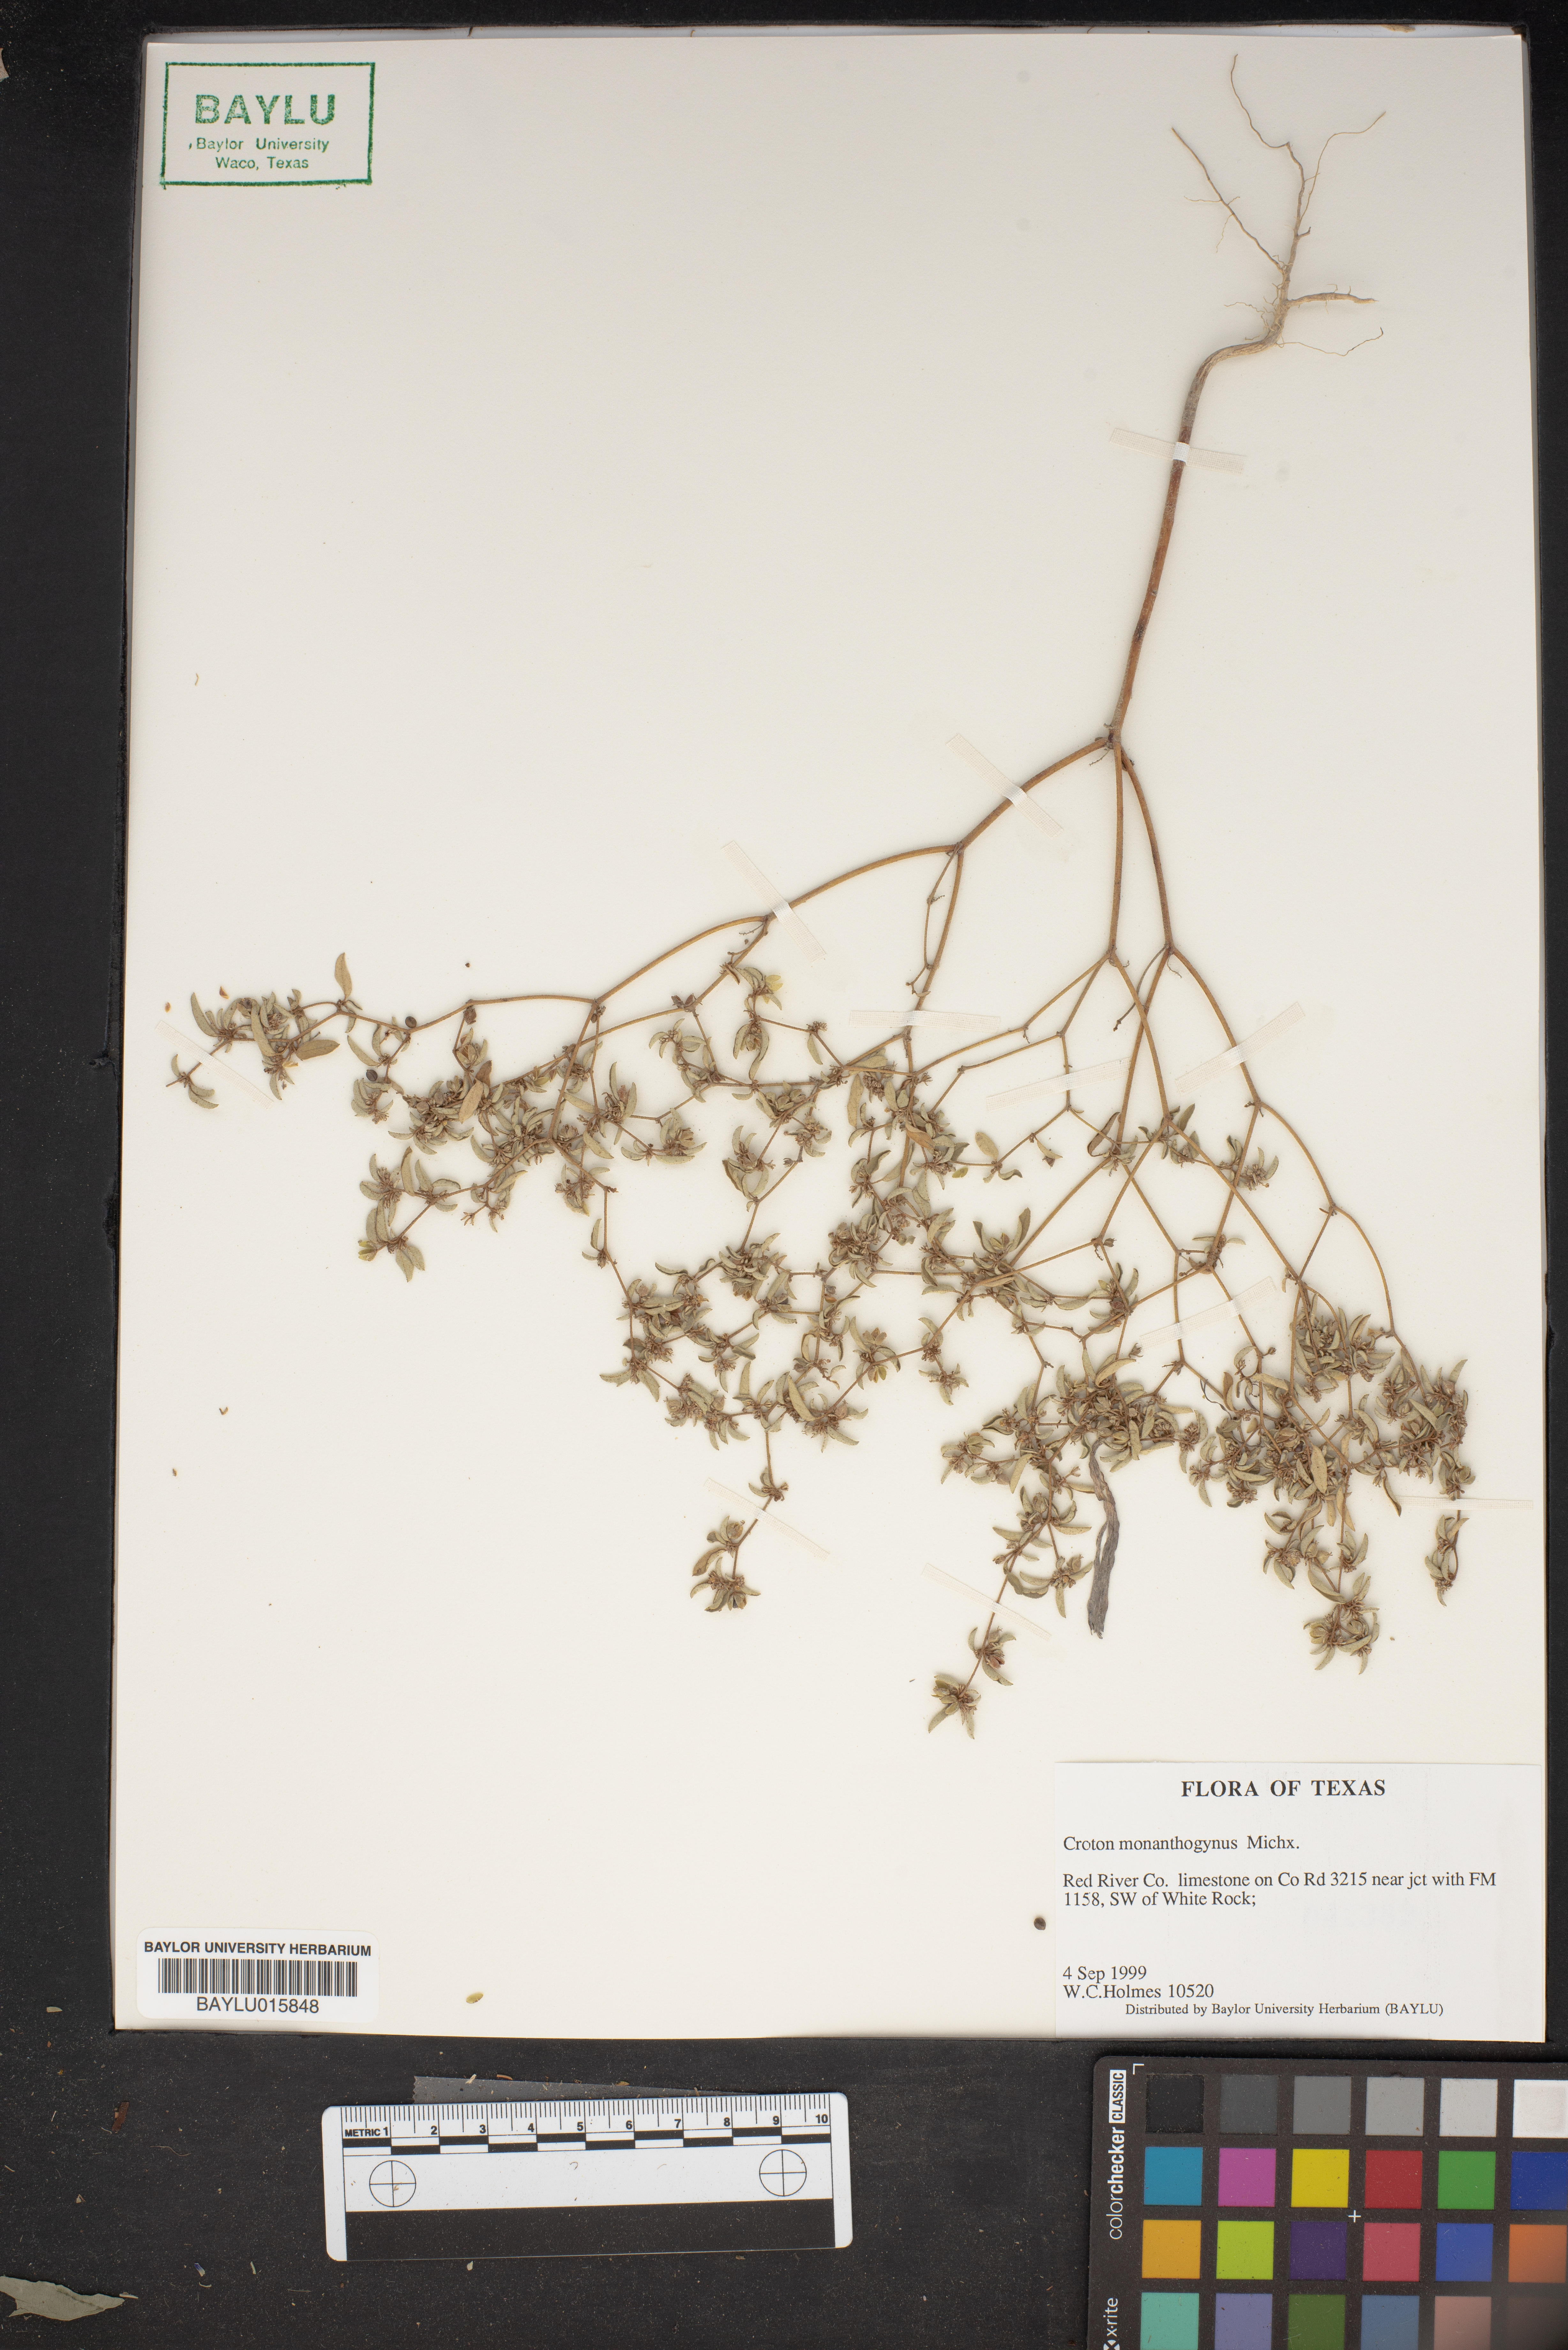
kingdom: Plantae
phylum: Tracheophyta
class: Magnoliopsida
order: Malpighiales
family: Euphorbiaceae
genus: Croton
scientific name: Croton monanthogynus
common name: One-seed croton
